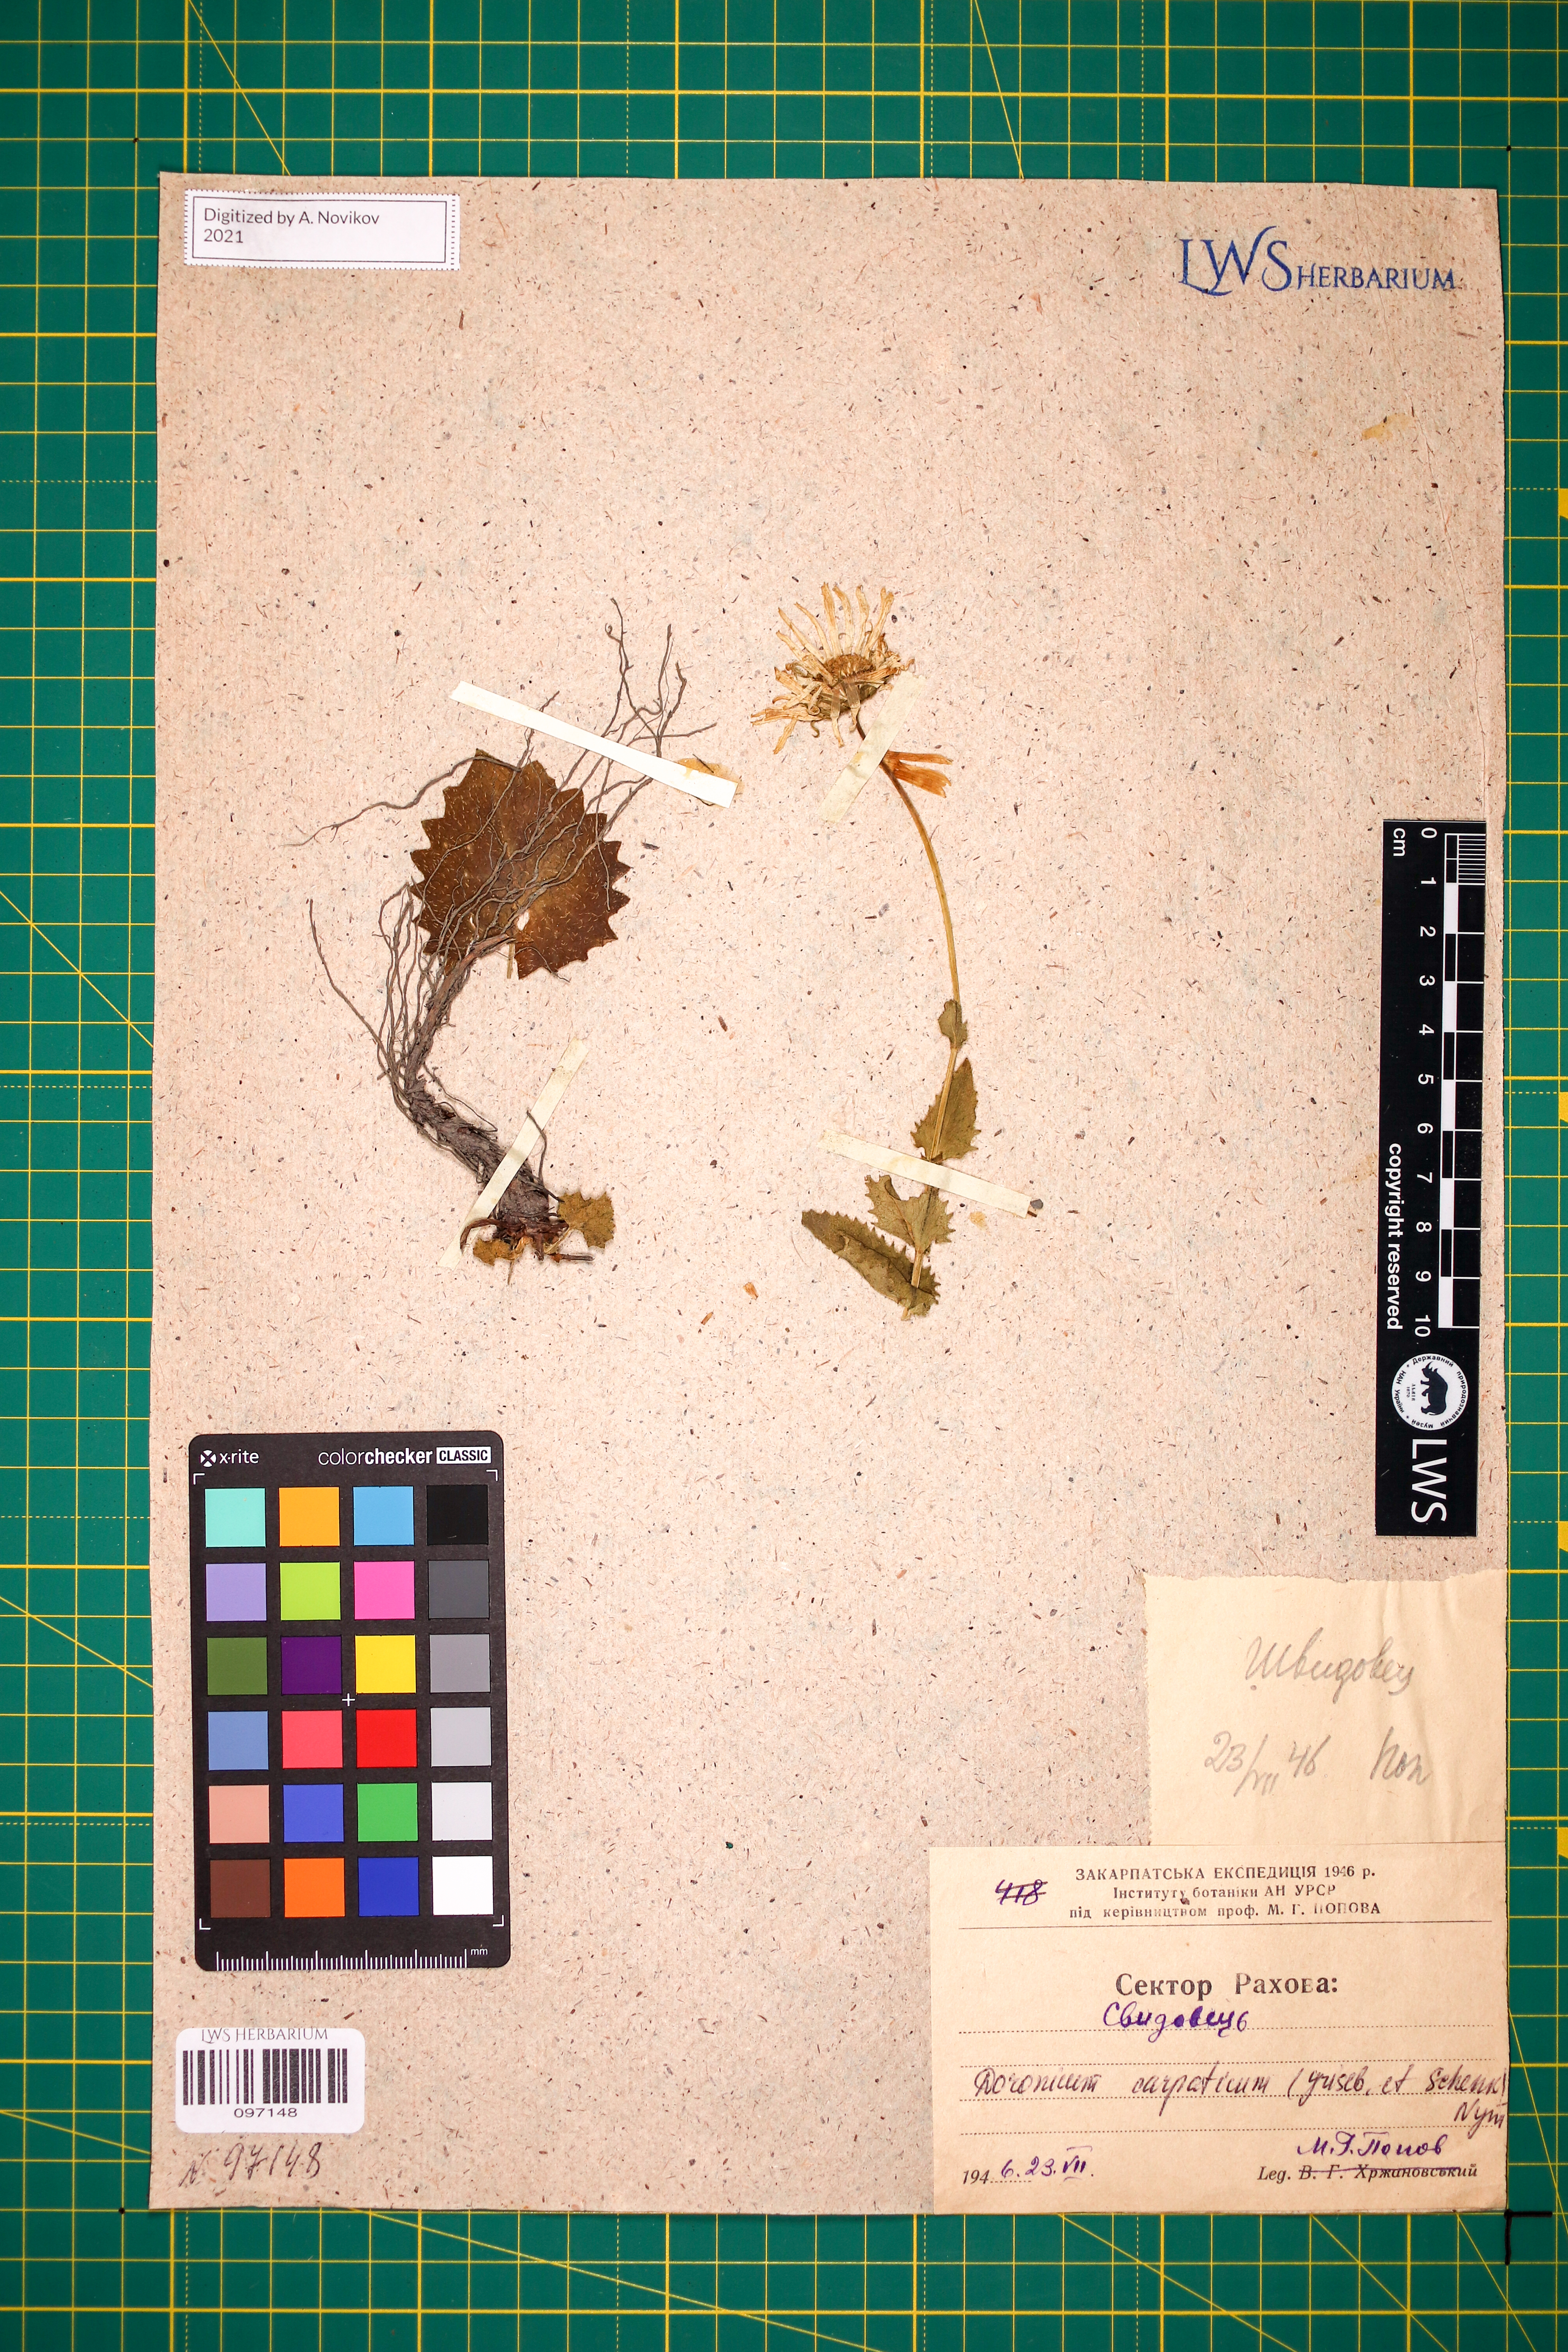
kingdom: Plantae
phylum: Tracheophyta
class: Magnoliopsida
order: Asterales
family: Asteraceae
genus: Doronicum
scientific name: Doronicum carpaticum
